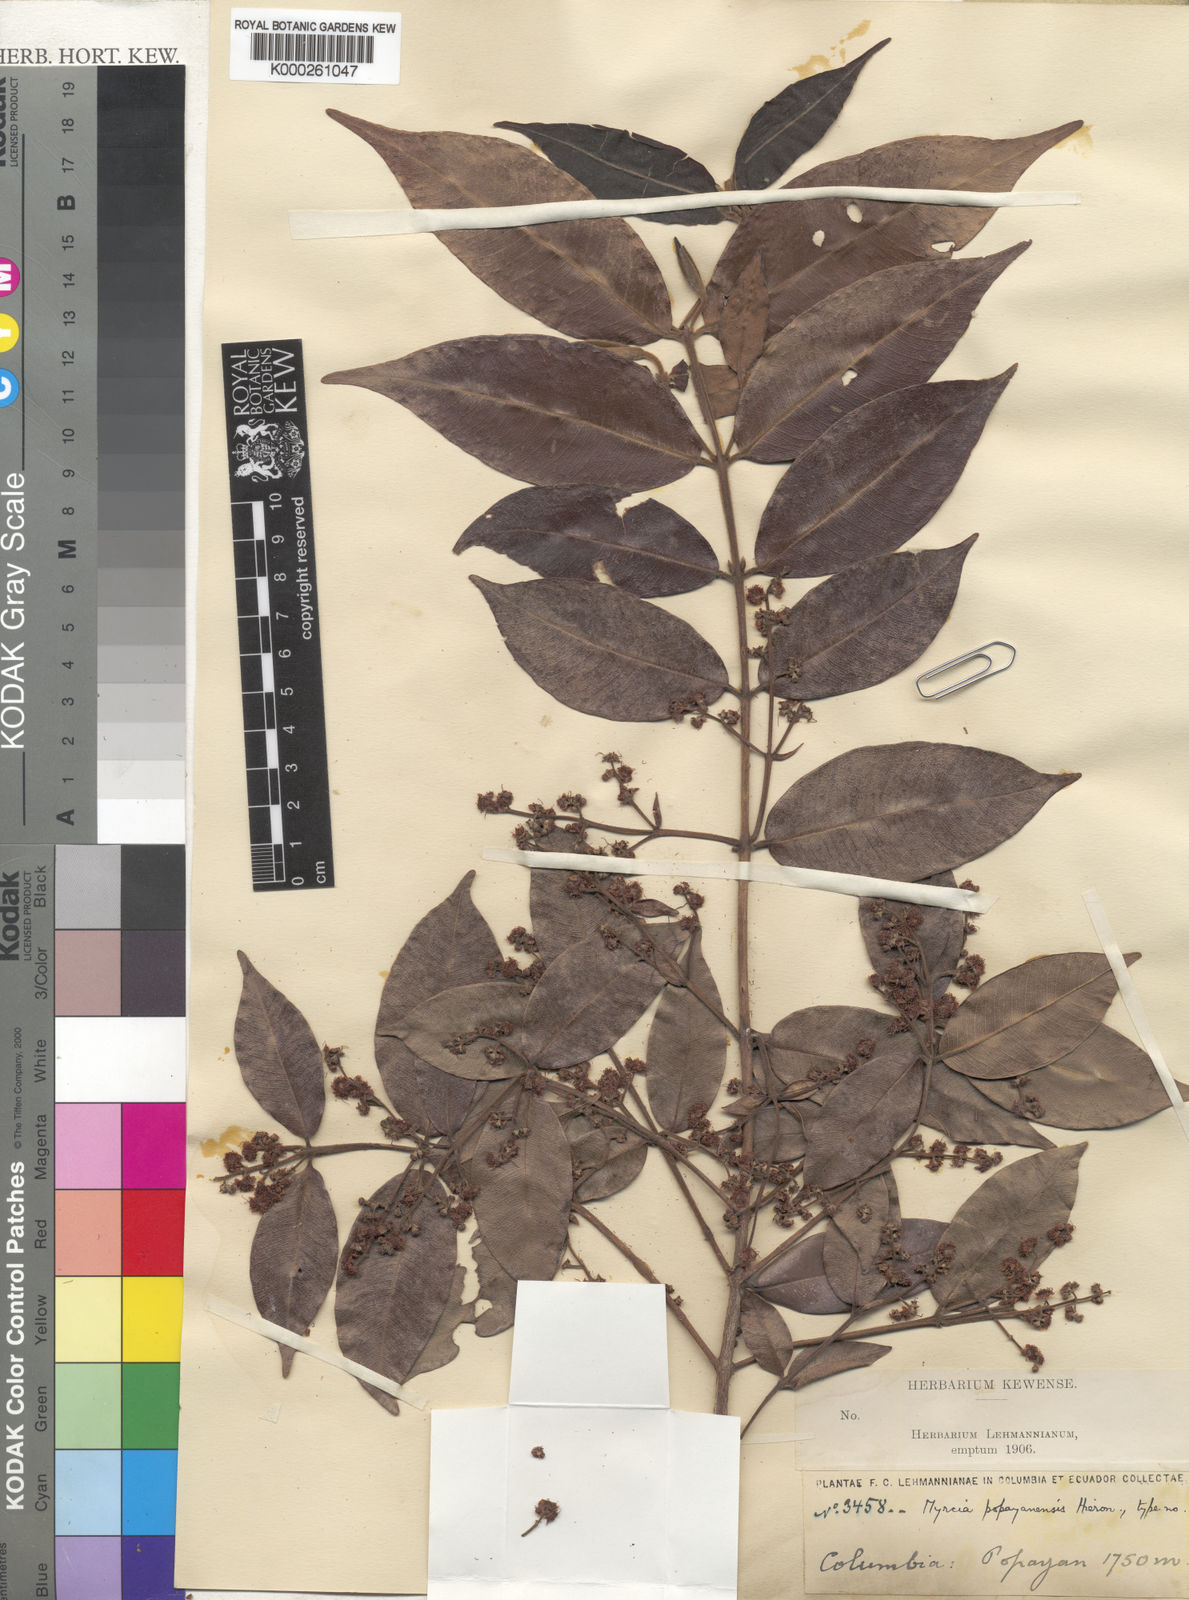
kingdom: Plantae
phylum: Tracheophyta
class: Magnoliopsida
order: Myrtales
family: Myrtaceae
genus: Myrcia
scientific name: Myrcia popayanensis
